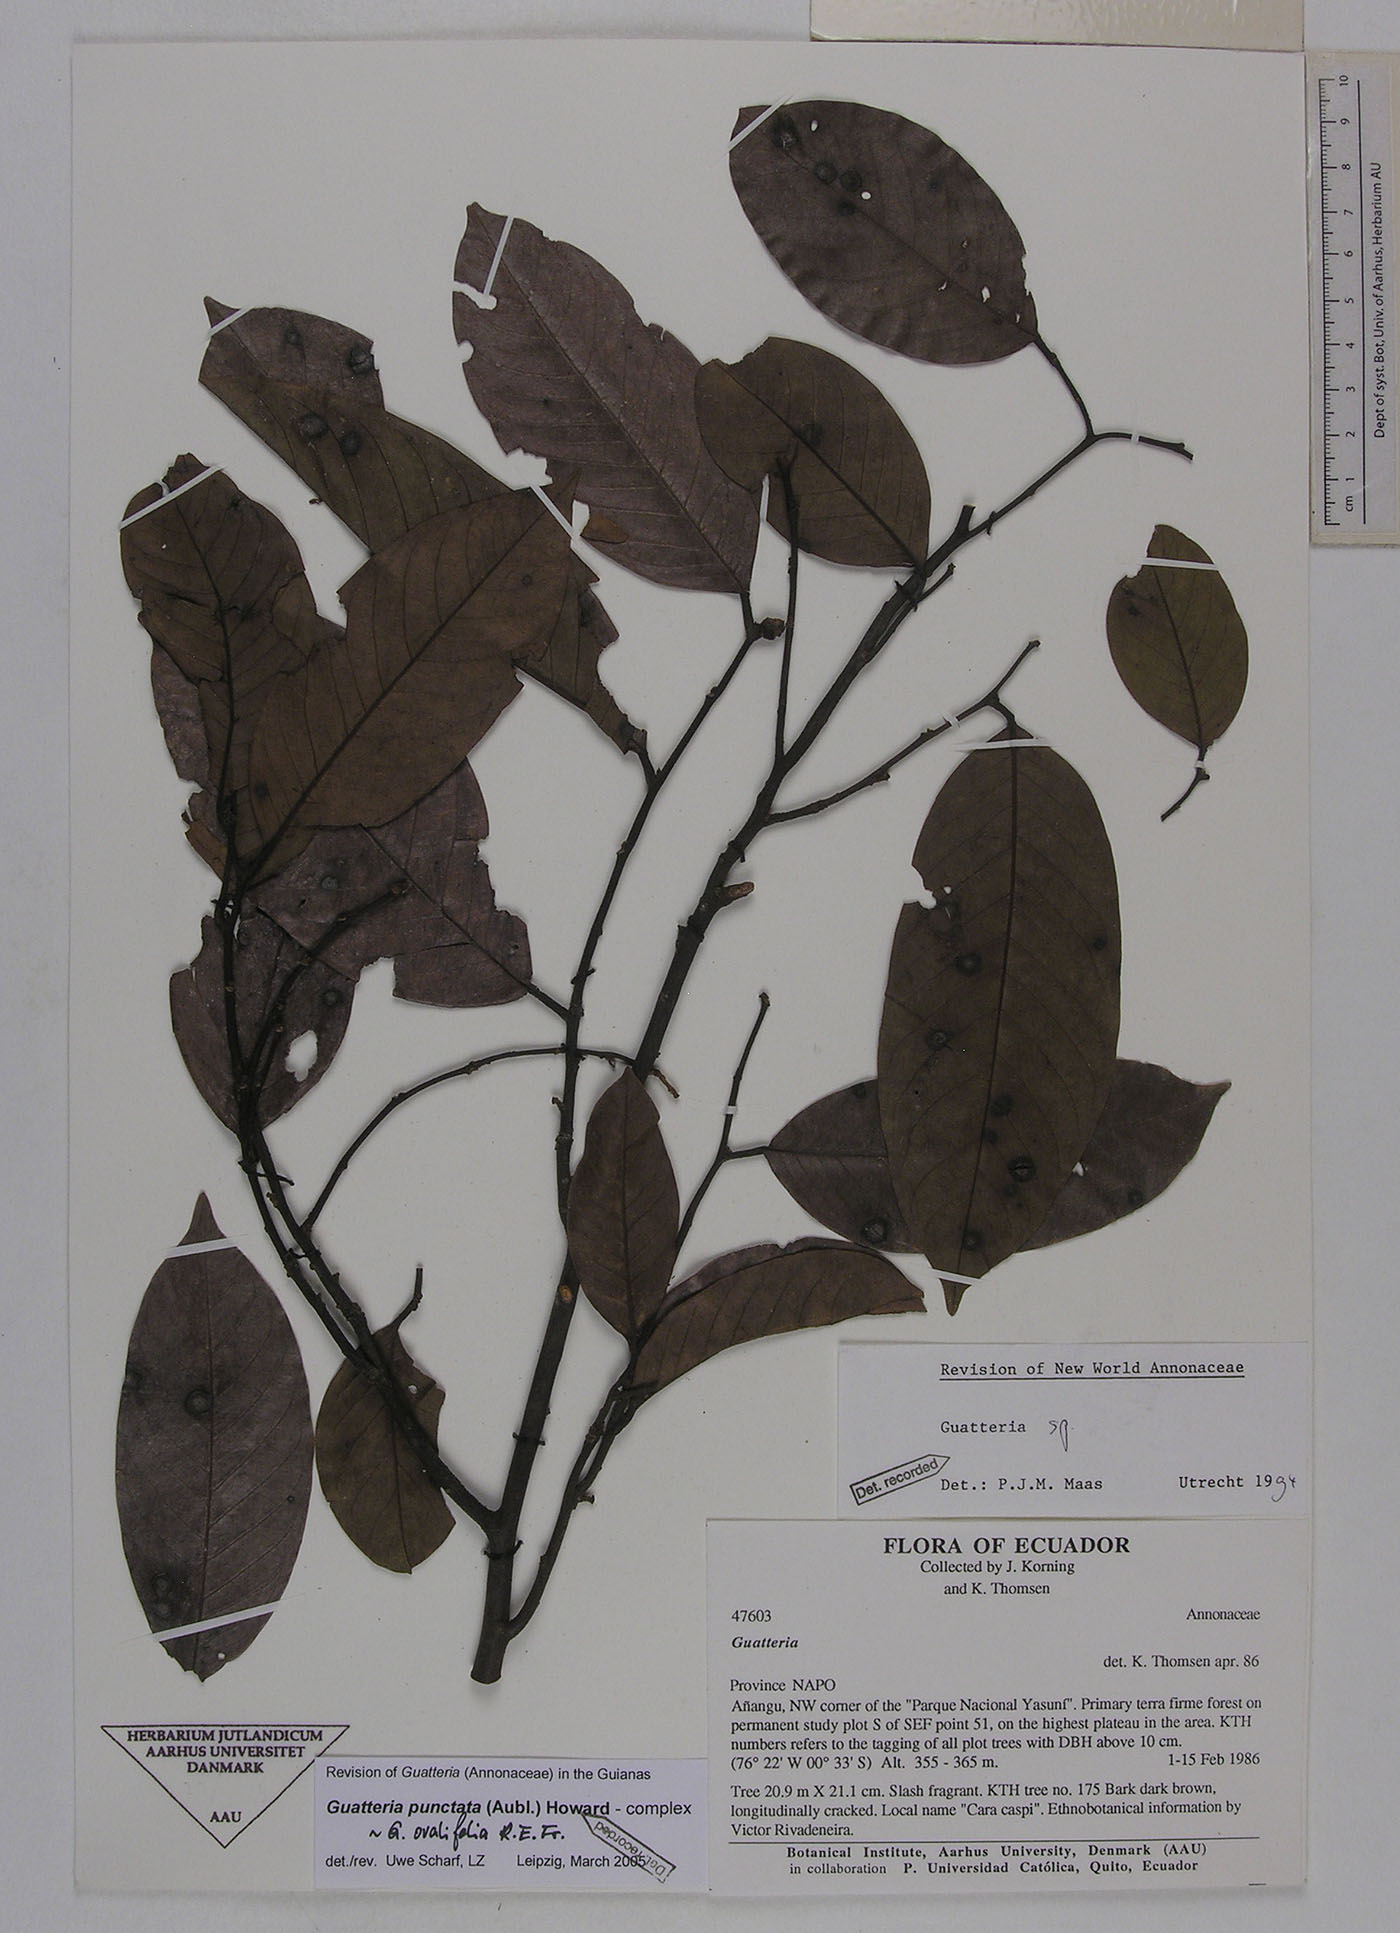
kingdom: Plantae
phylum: Tracheophyta
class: Magnoliopsida
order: Magnoliales
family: Annonaceae
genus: Guatteria
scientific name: Guatteria punctata
